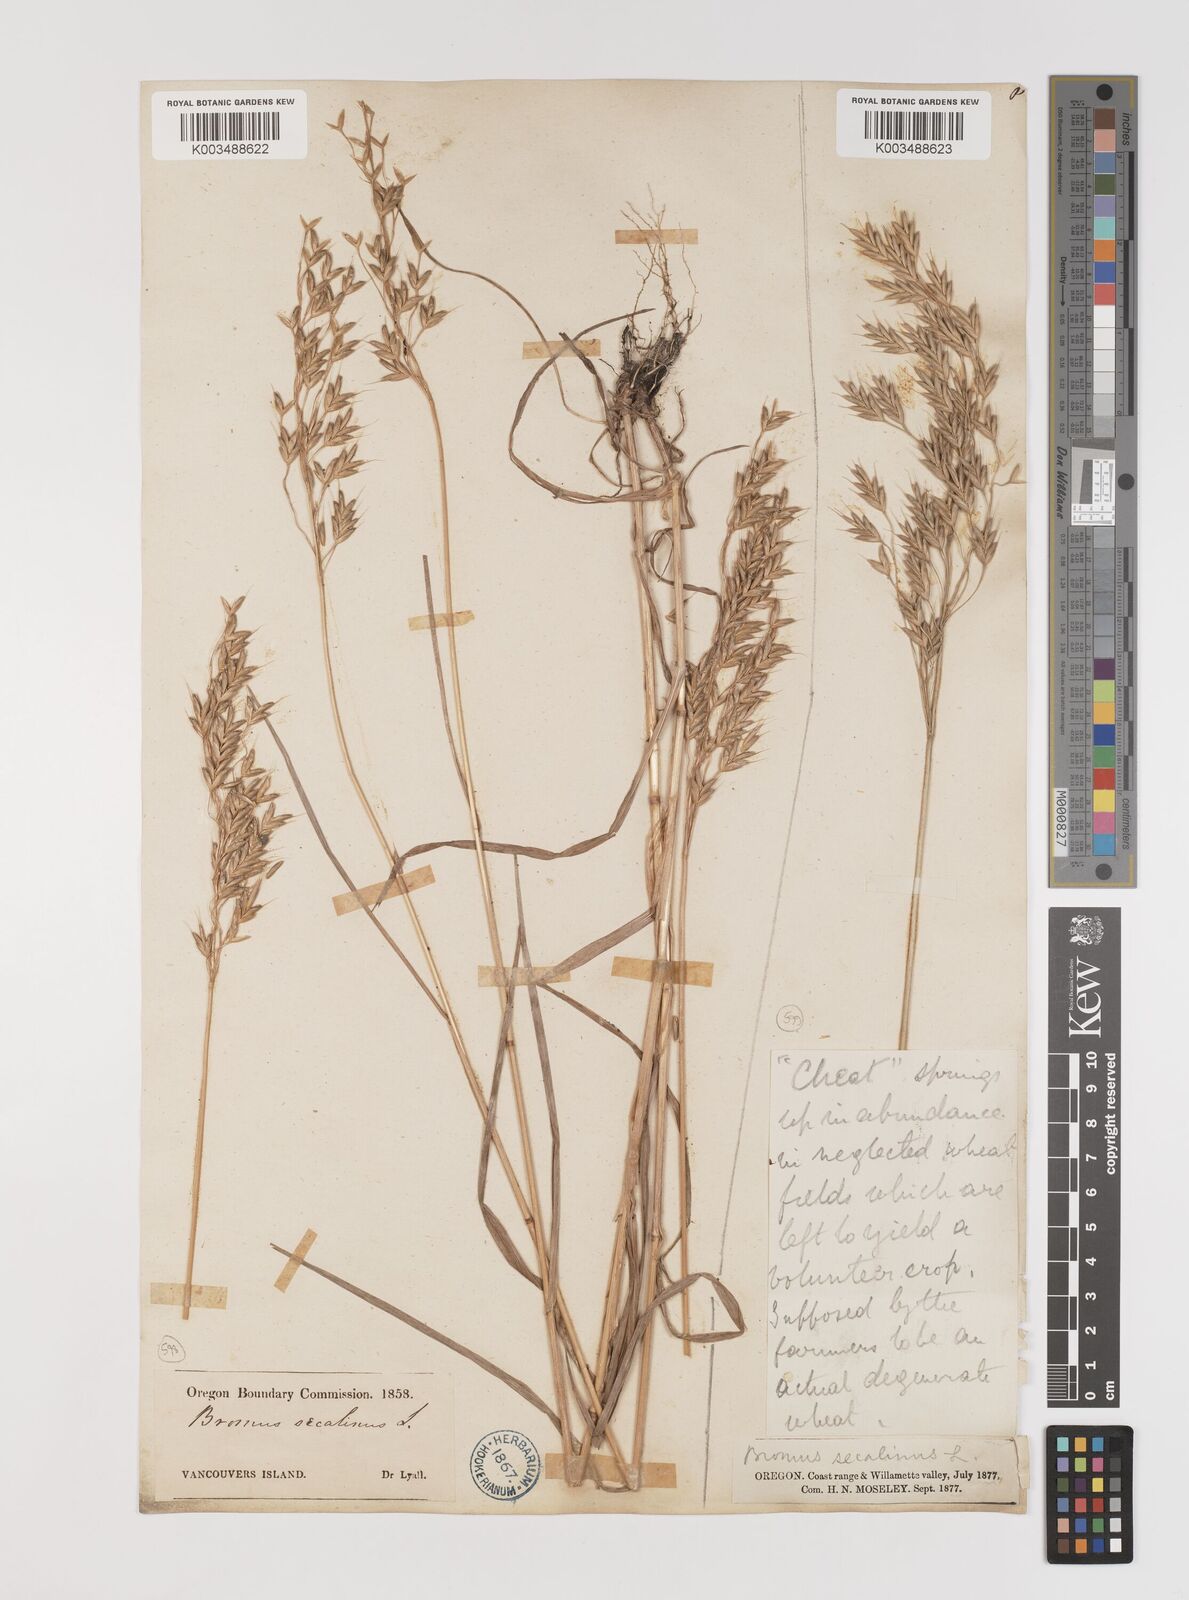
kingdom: Plantae
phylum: Tracheophyta
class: Liliopsida
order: Poales
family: Poaceae
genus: Bromus
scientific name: Bromus secalinus
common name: Rye brome
